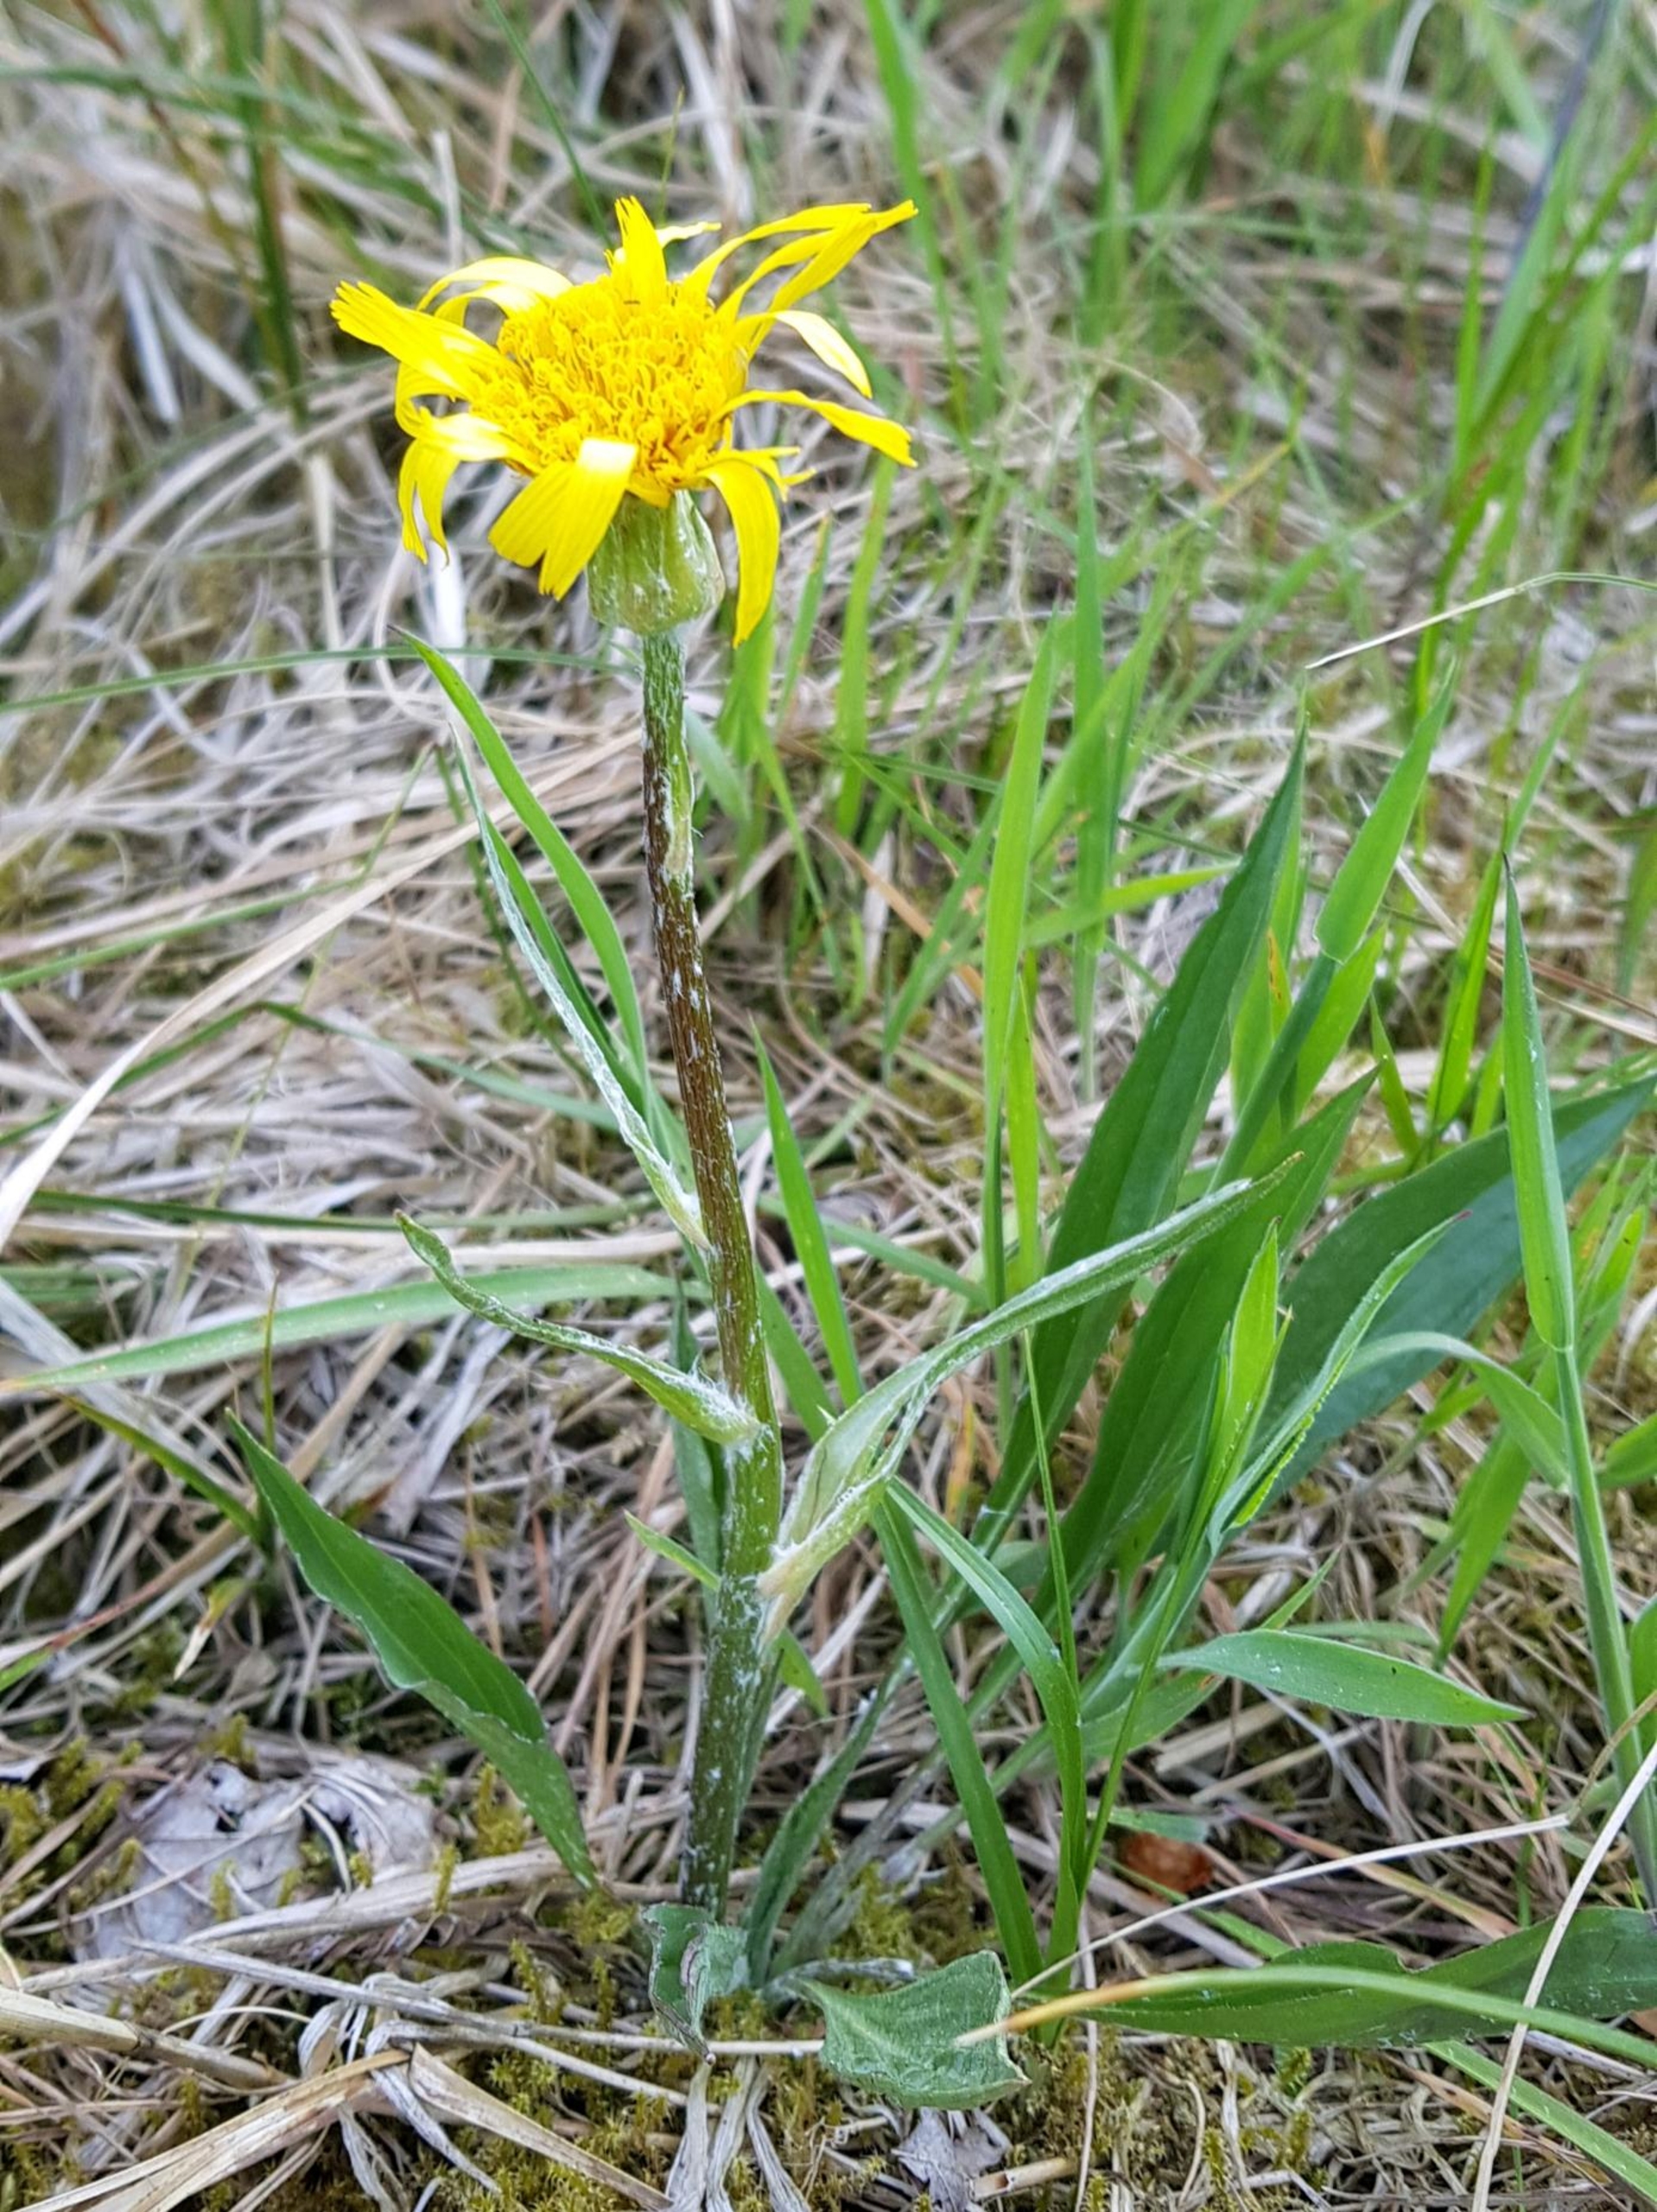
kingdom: Plantae
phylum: Tracheophyta
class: Magnoliopsida
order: Asterales
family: Asteraceae
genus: Scorzonera
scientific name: Scorzonera humilis
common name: Lav skorsoner
